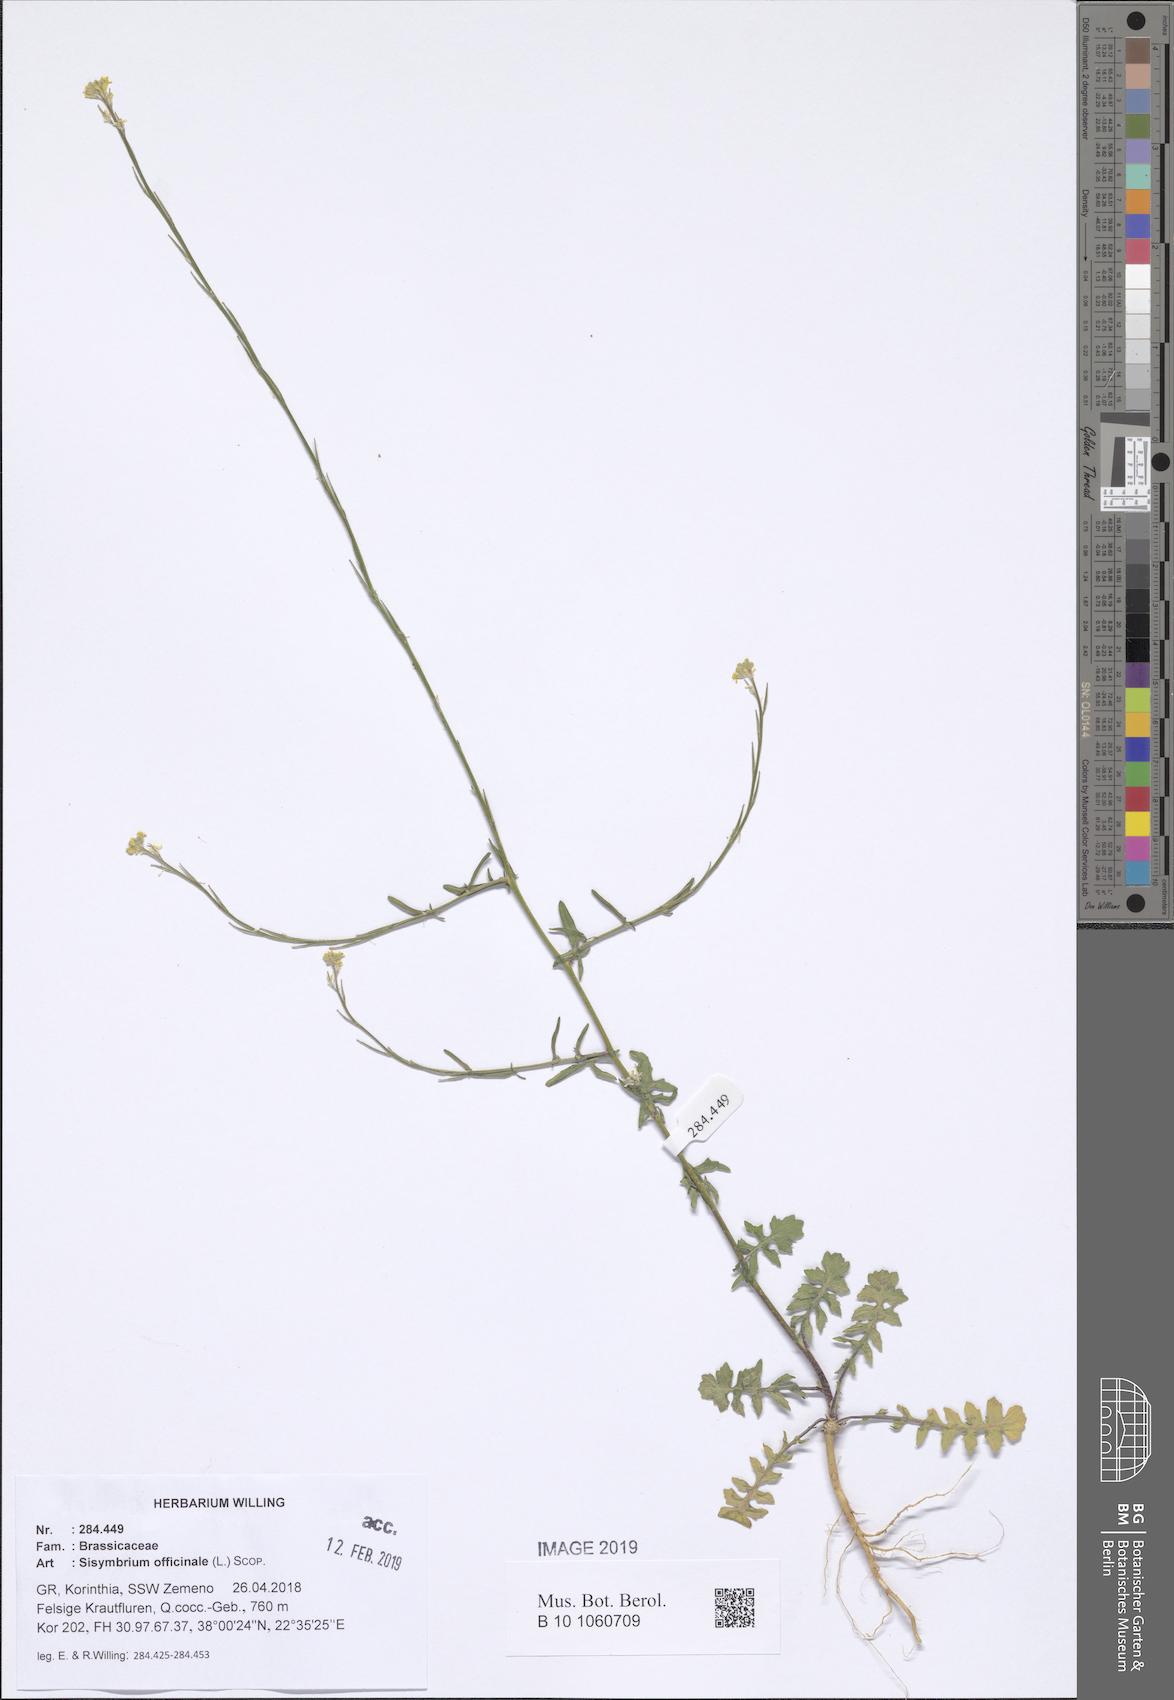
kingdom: Plantae
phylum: Tracheophyta
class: Magnoliopsida
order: Brassicales
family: Brassicaceae
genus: Sisymbrium
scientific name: Sisymbrium officinale
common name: Hedge mustard
